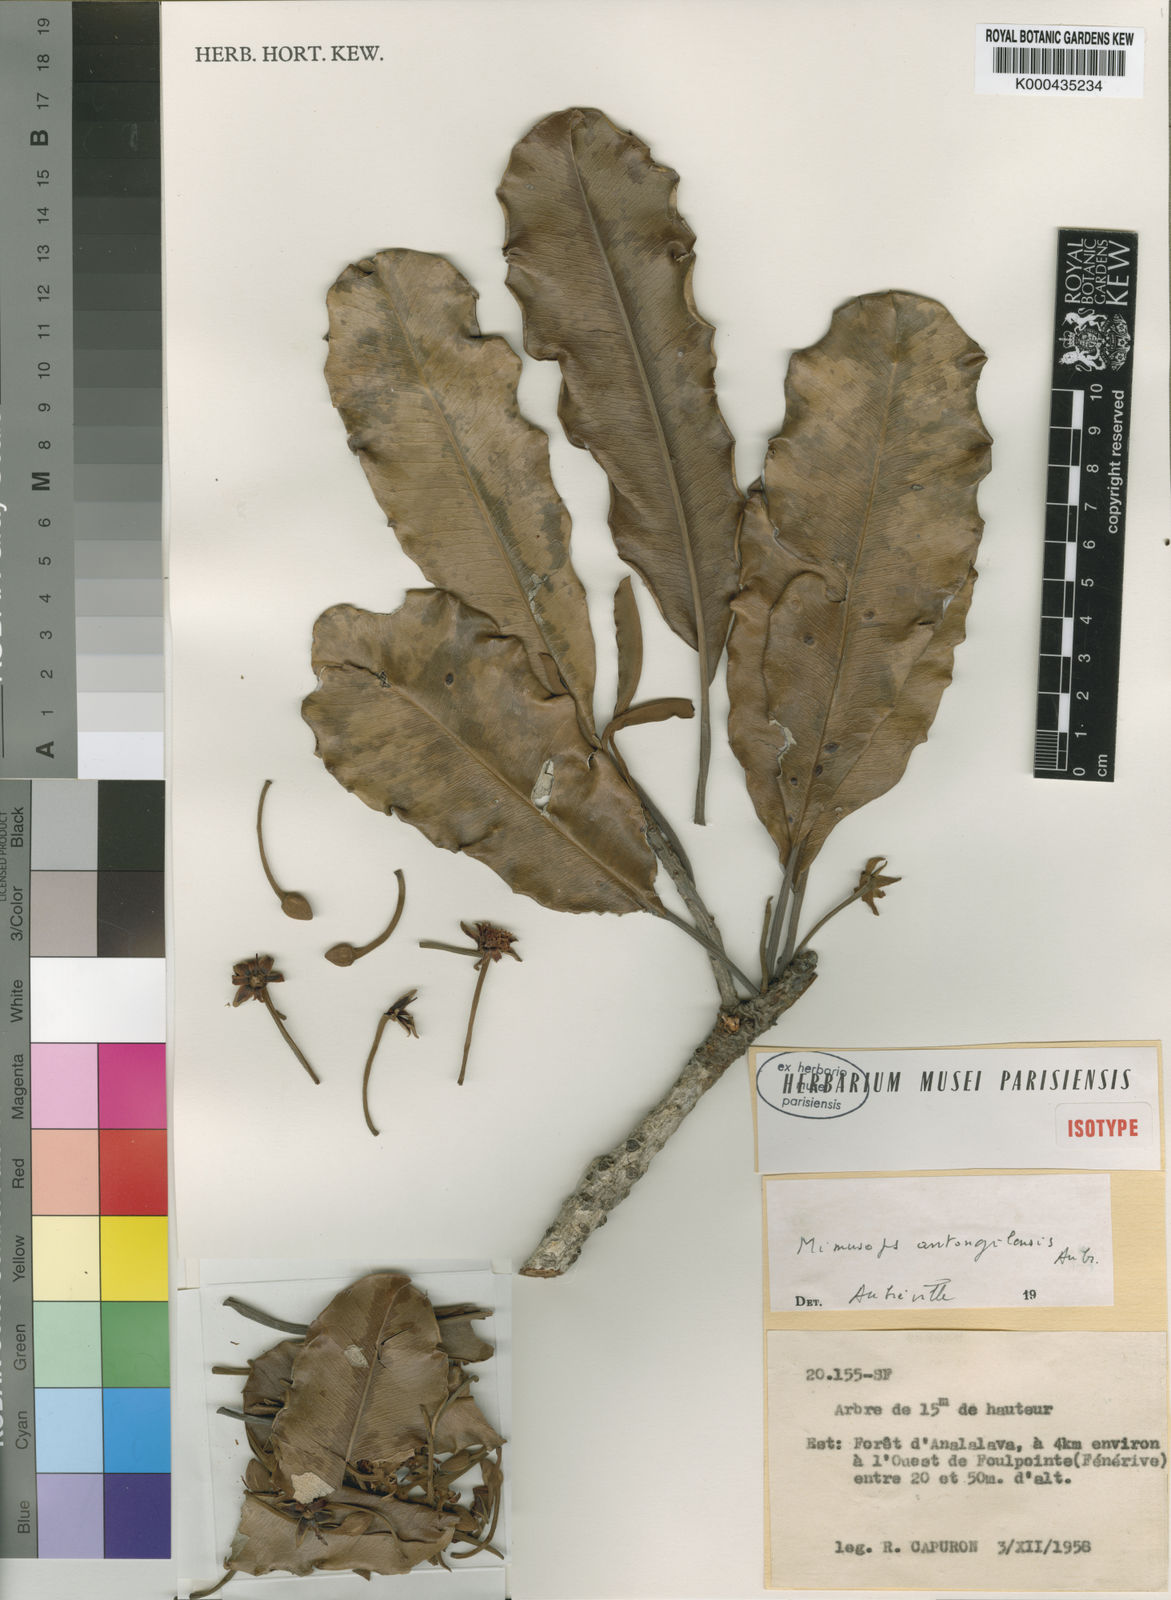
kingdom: Plantae
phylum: Tracheophyta
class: Magnoliopsida
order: Ericales
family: Sapotaceae
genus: Mimusops
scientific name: Mimusops
